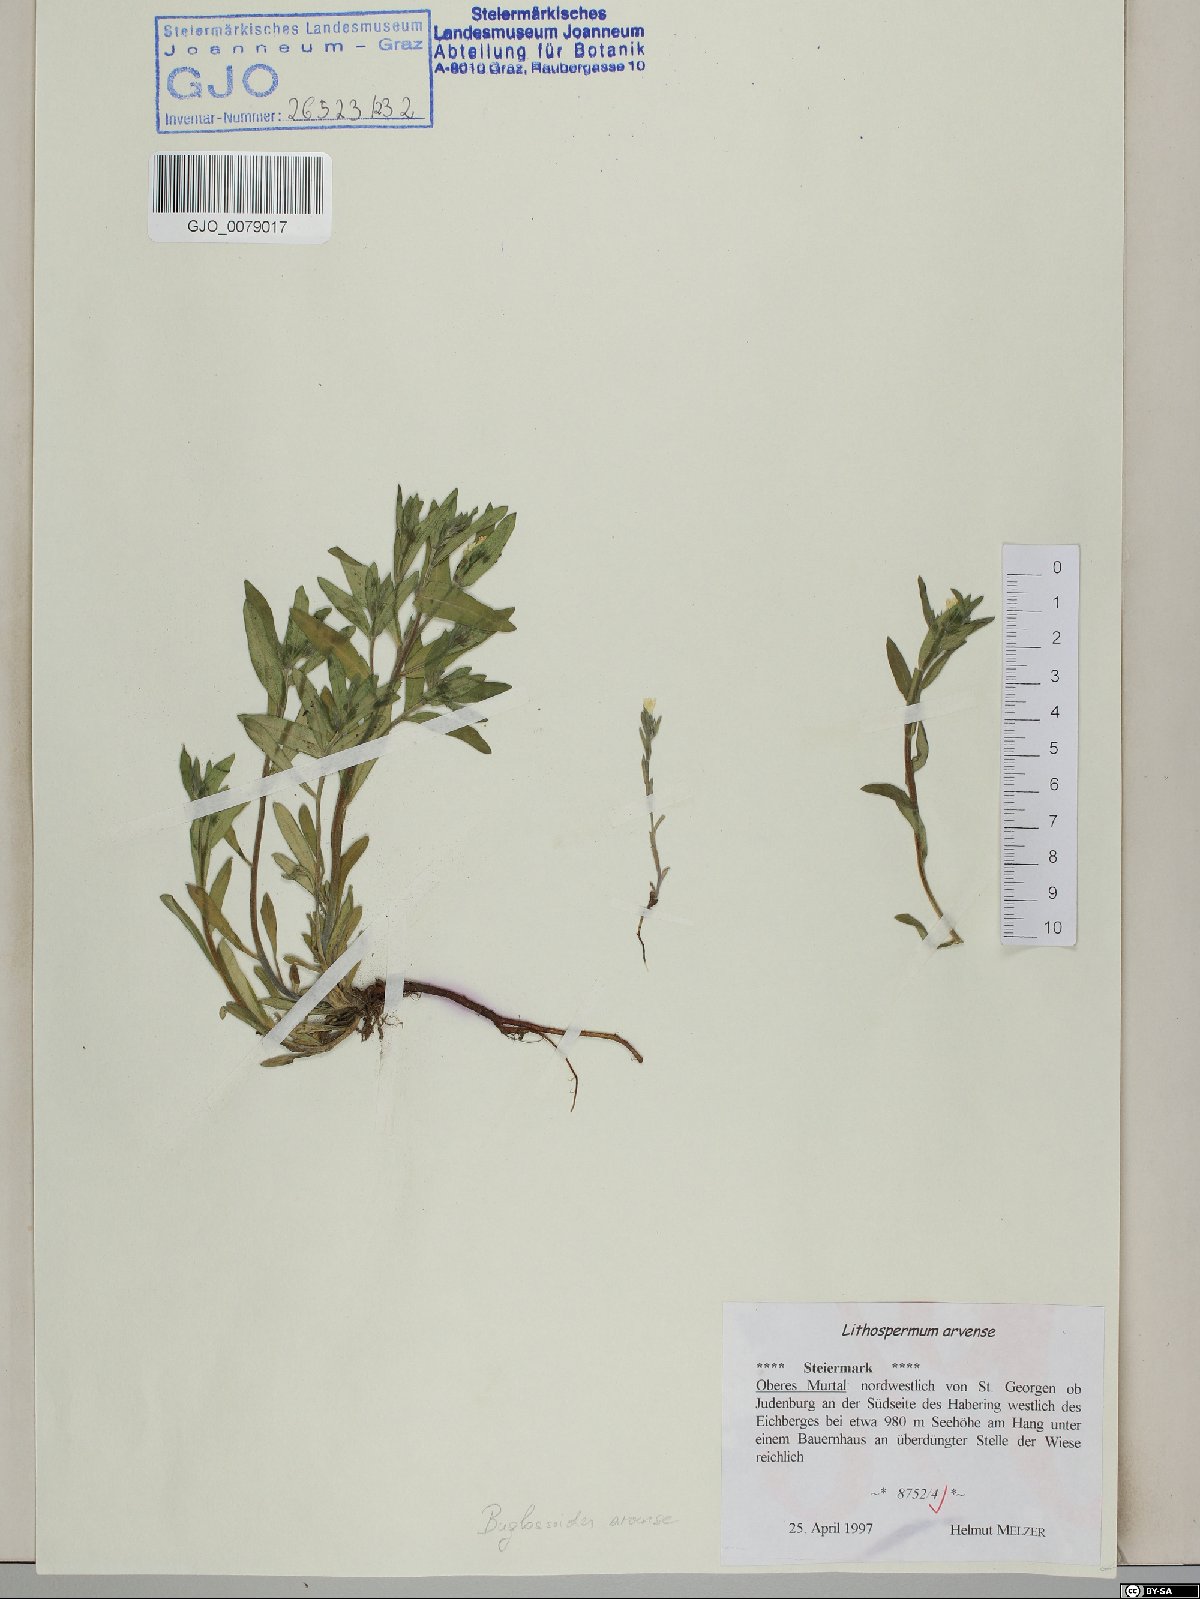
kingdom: Plantae
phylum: Tracheophyta
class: Magnoliopsida
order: Boraginales
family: Boraginaceae
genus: Buglossoides
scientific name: Buglossoides arvensis
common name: Corn gromwell
